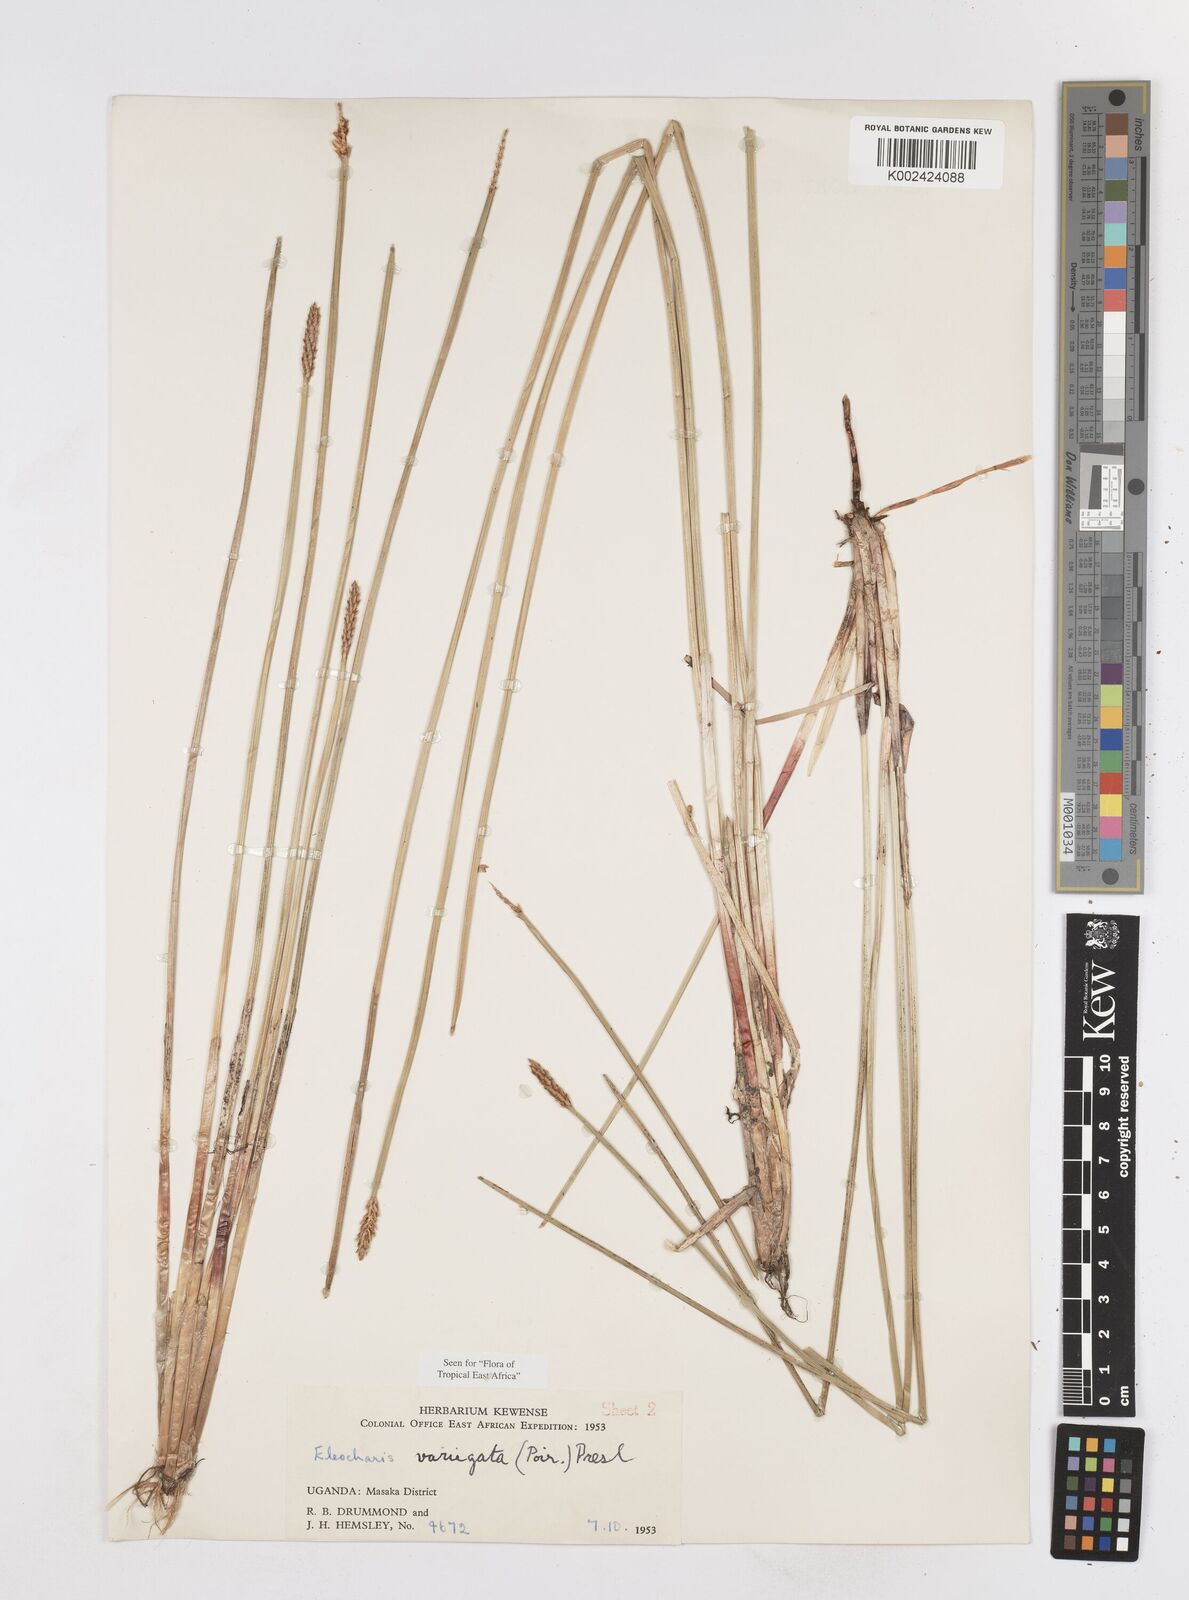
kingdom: Plantae
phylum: Tracheophyta
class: Liliopsida
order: Poales
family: Cyperaceae
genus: Eleocharis
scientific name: Eleocharis variegata
